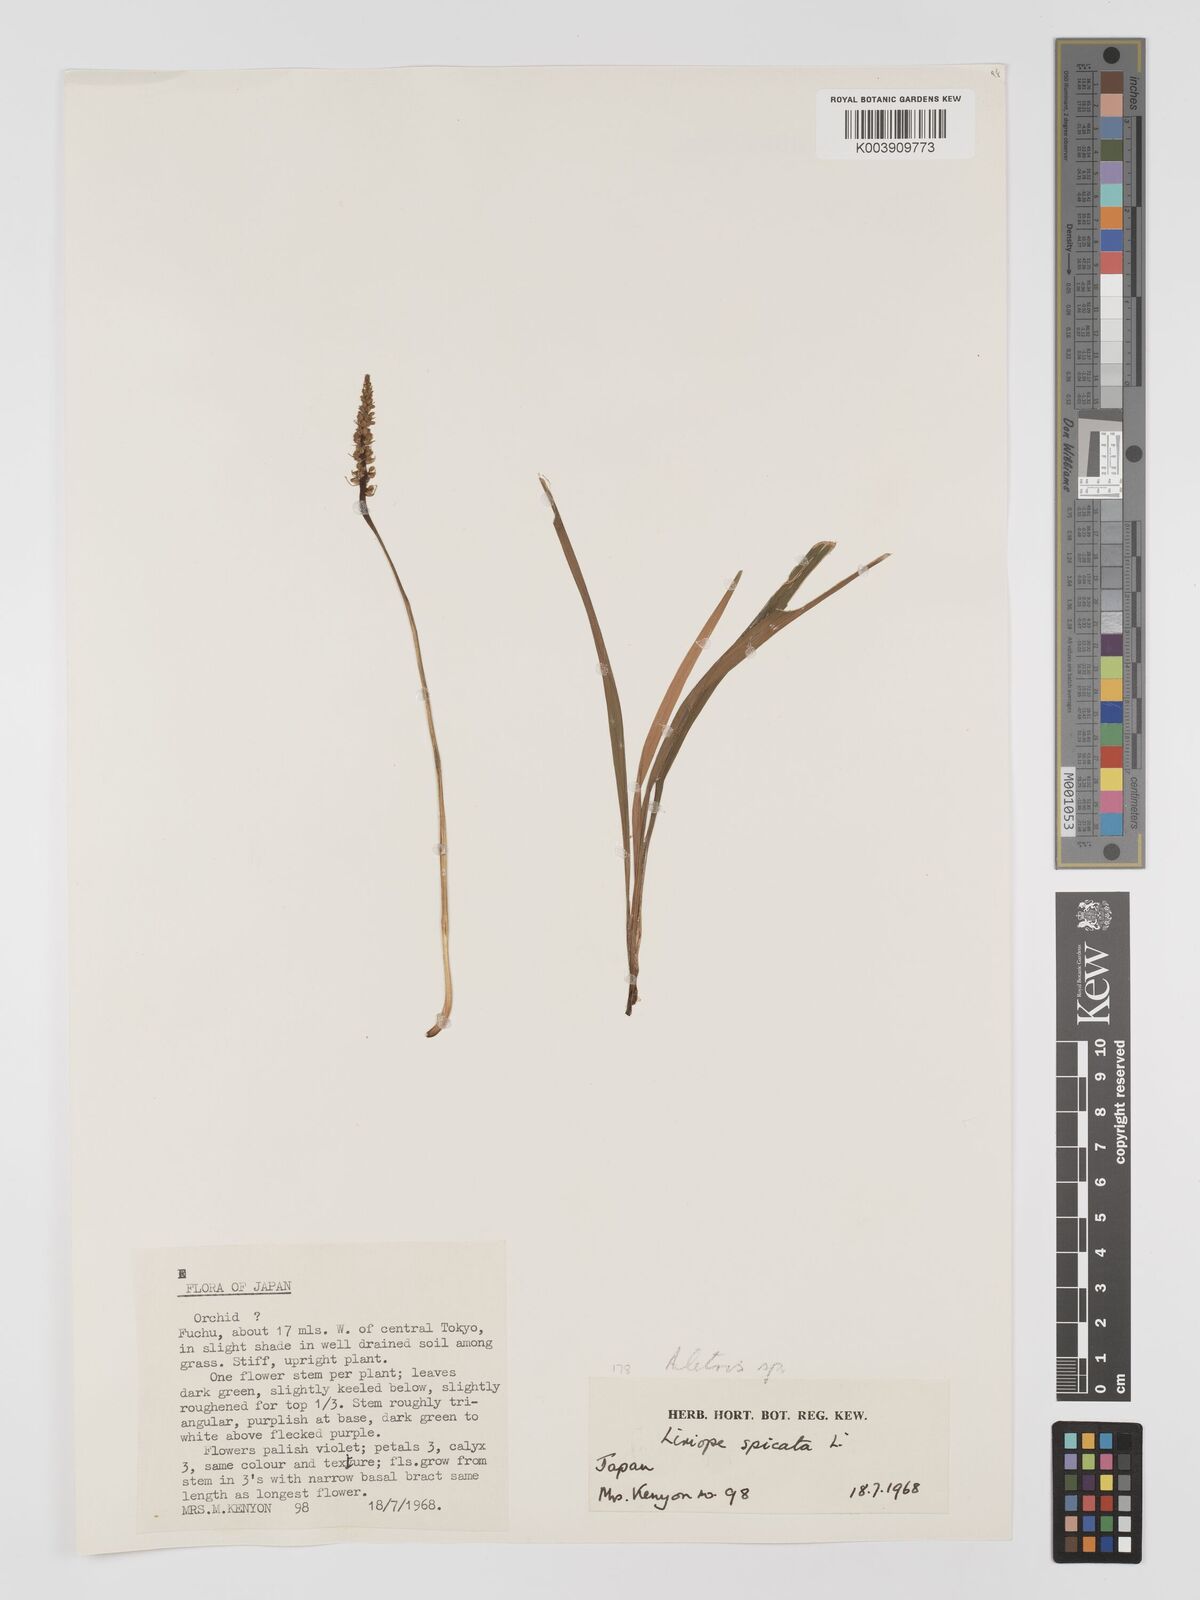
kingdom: Plantae
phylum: Tracheophyta
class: Liliopsida
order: Dioscoreales
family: Nartheciaceae
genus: Aletris
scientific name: Aletris
